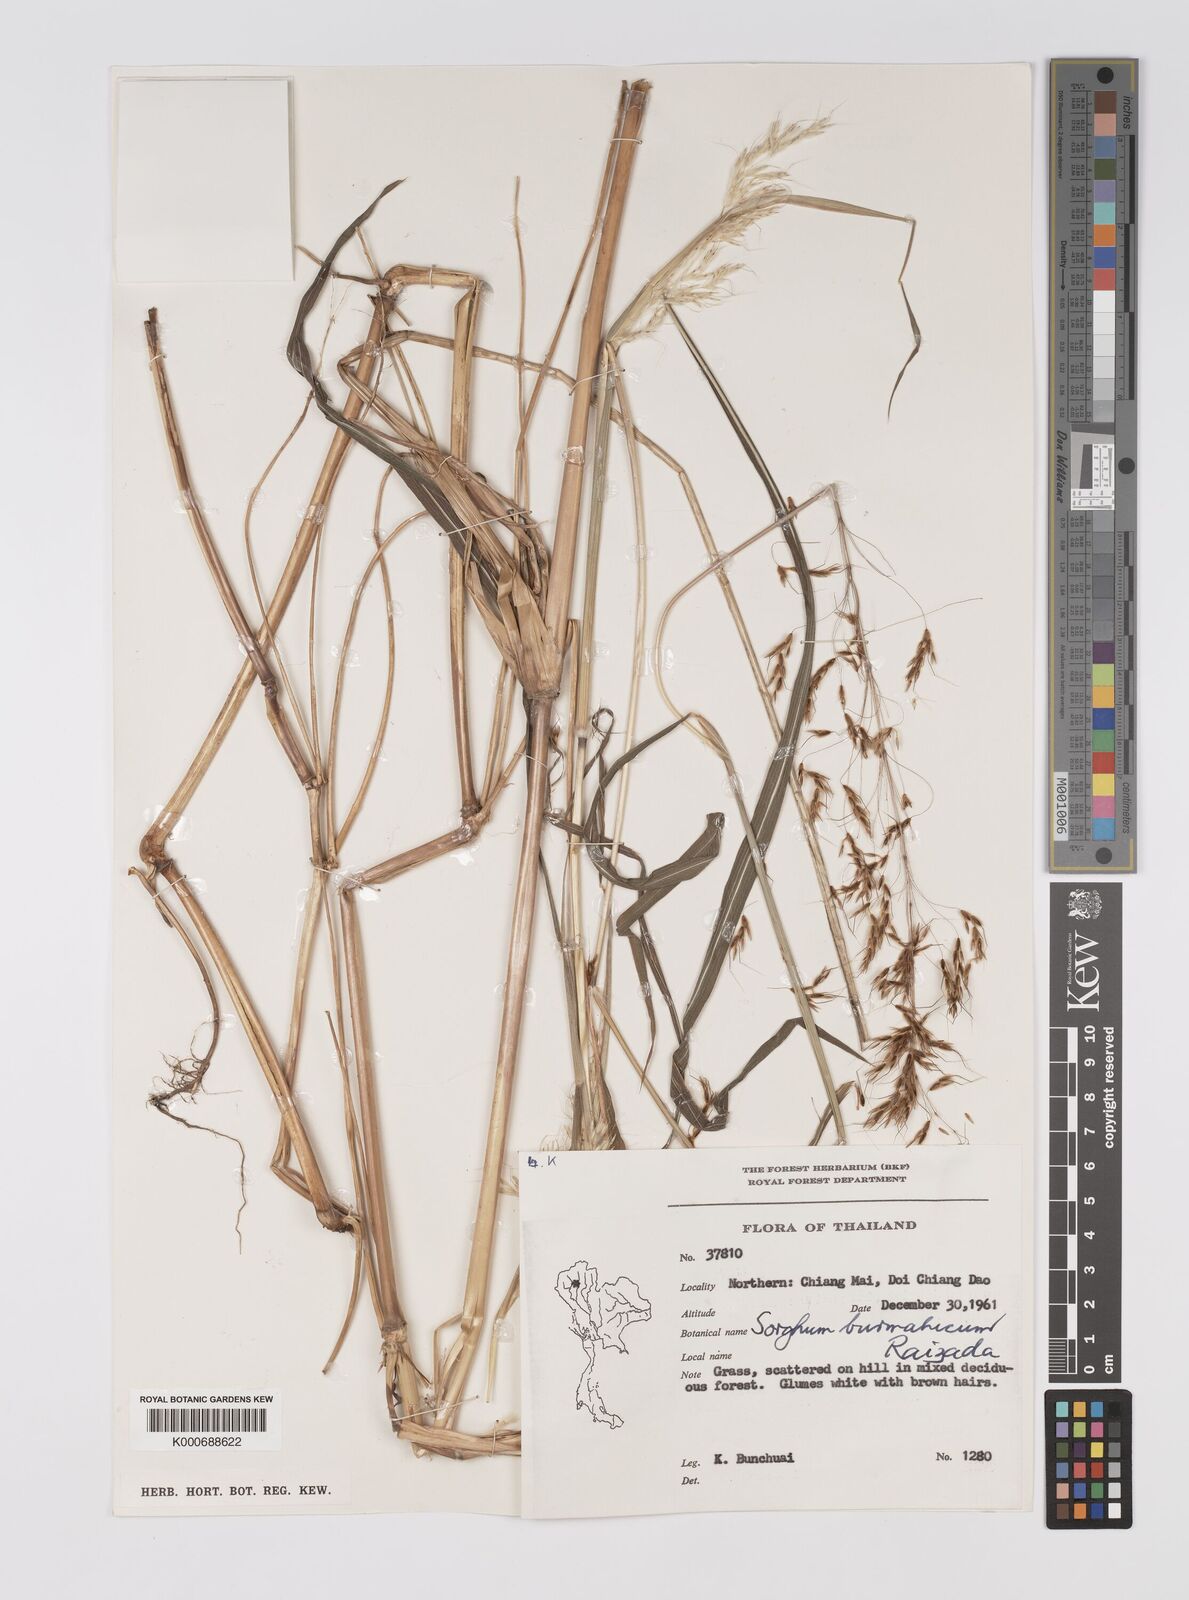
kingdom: Plantae
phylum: Tracheophyta
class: Liliopsida
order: Poales
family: Poaceae
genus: Sorghum
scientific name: Sorghum burmahicum
